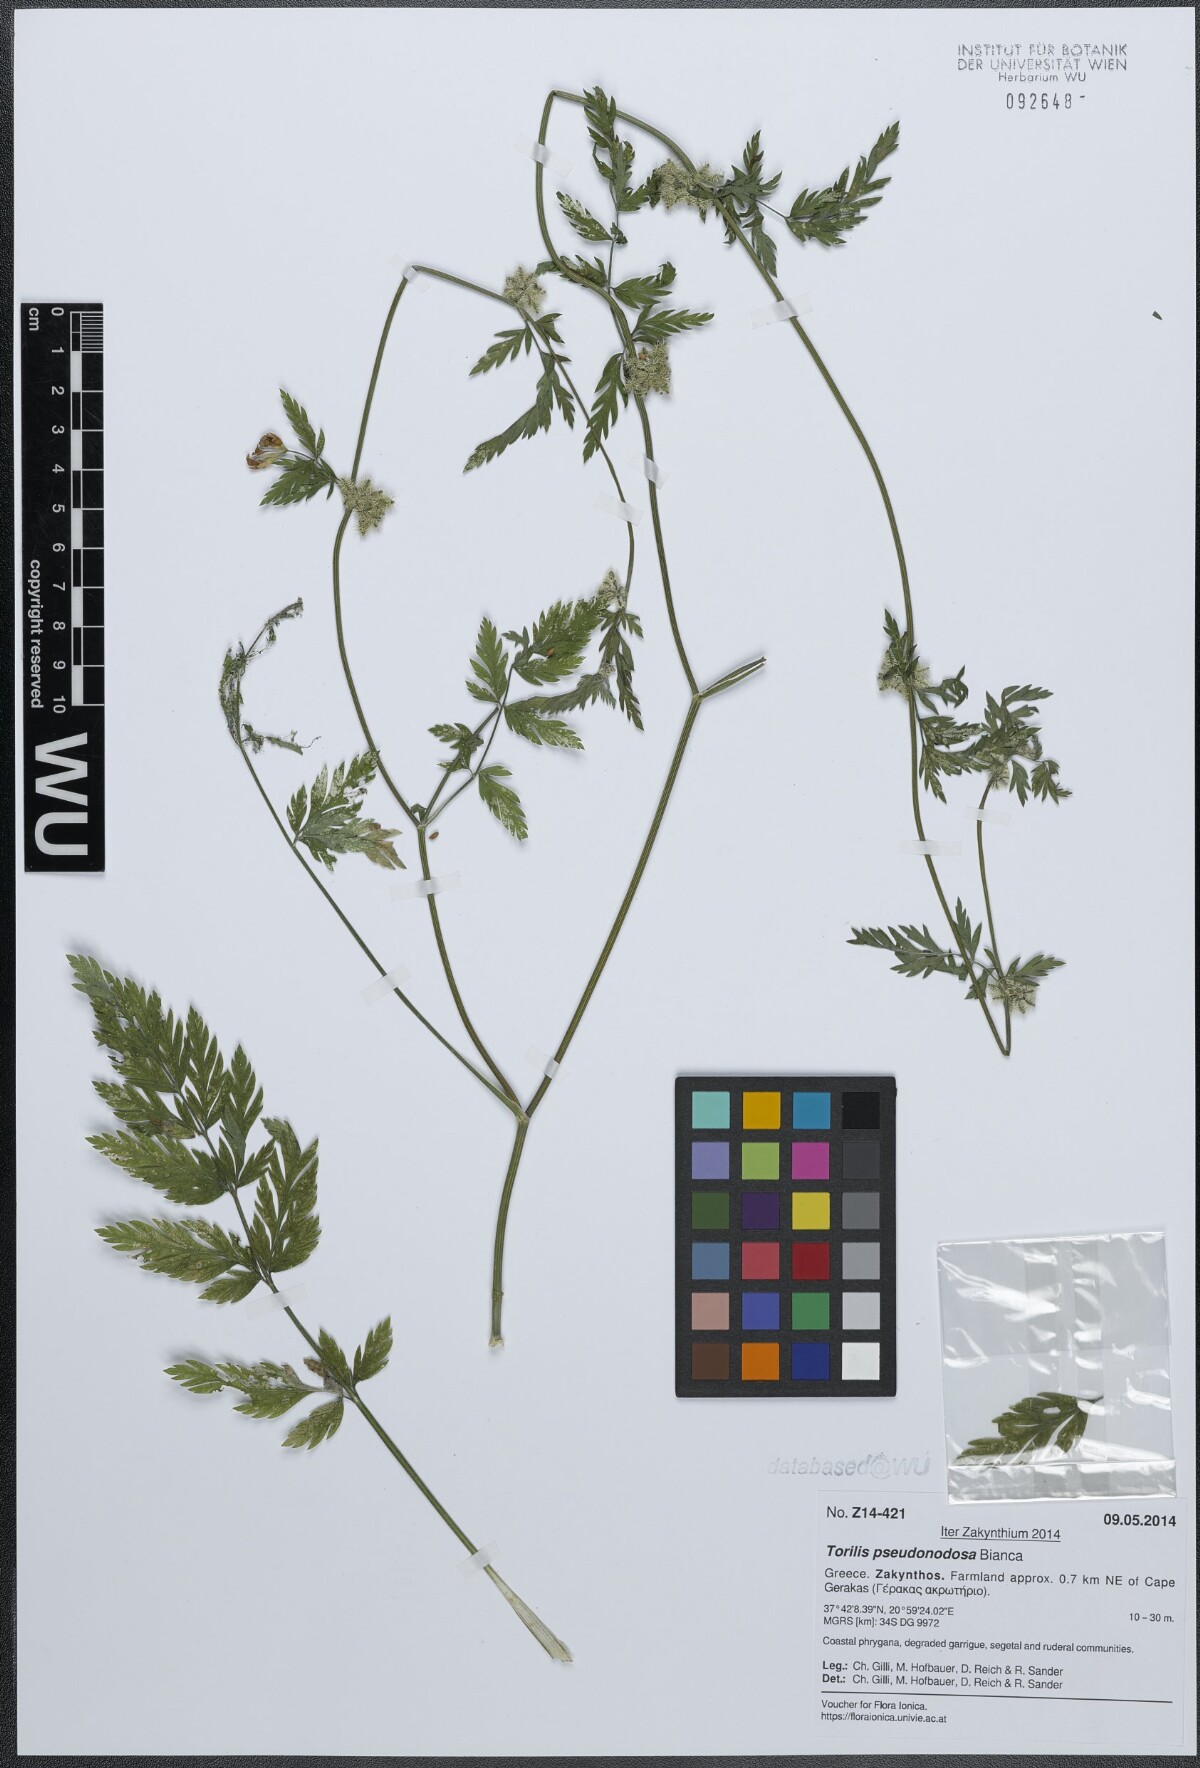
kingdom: Plantae
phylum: Tracheophyta
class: Magnoliopsida
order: Apiales
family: Apiaceae
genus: Torilis
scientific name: Torilis pseudonodosa
